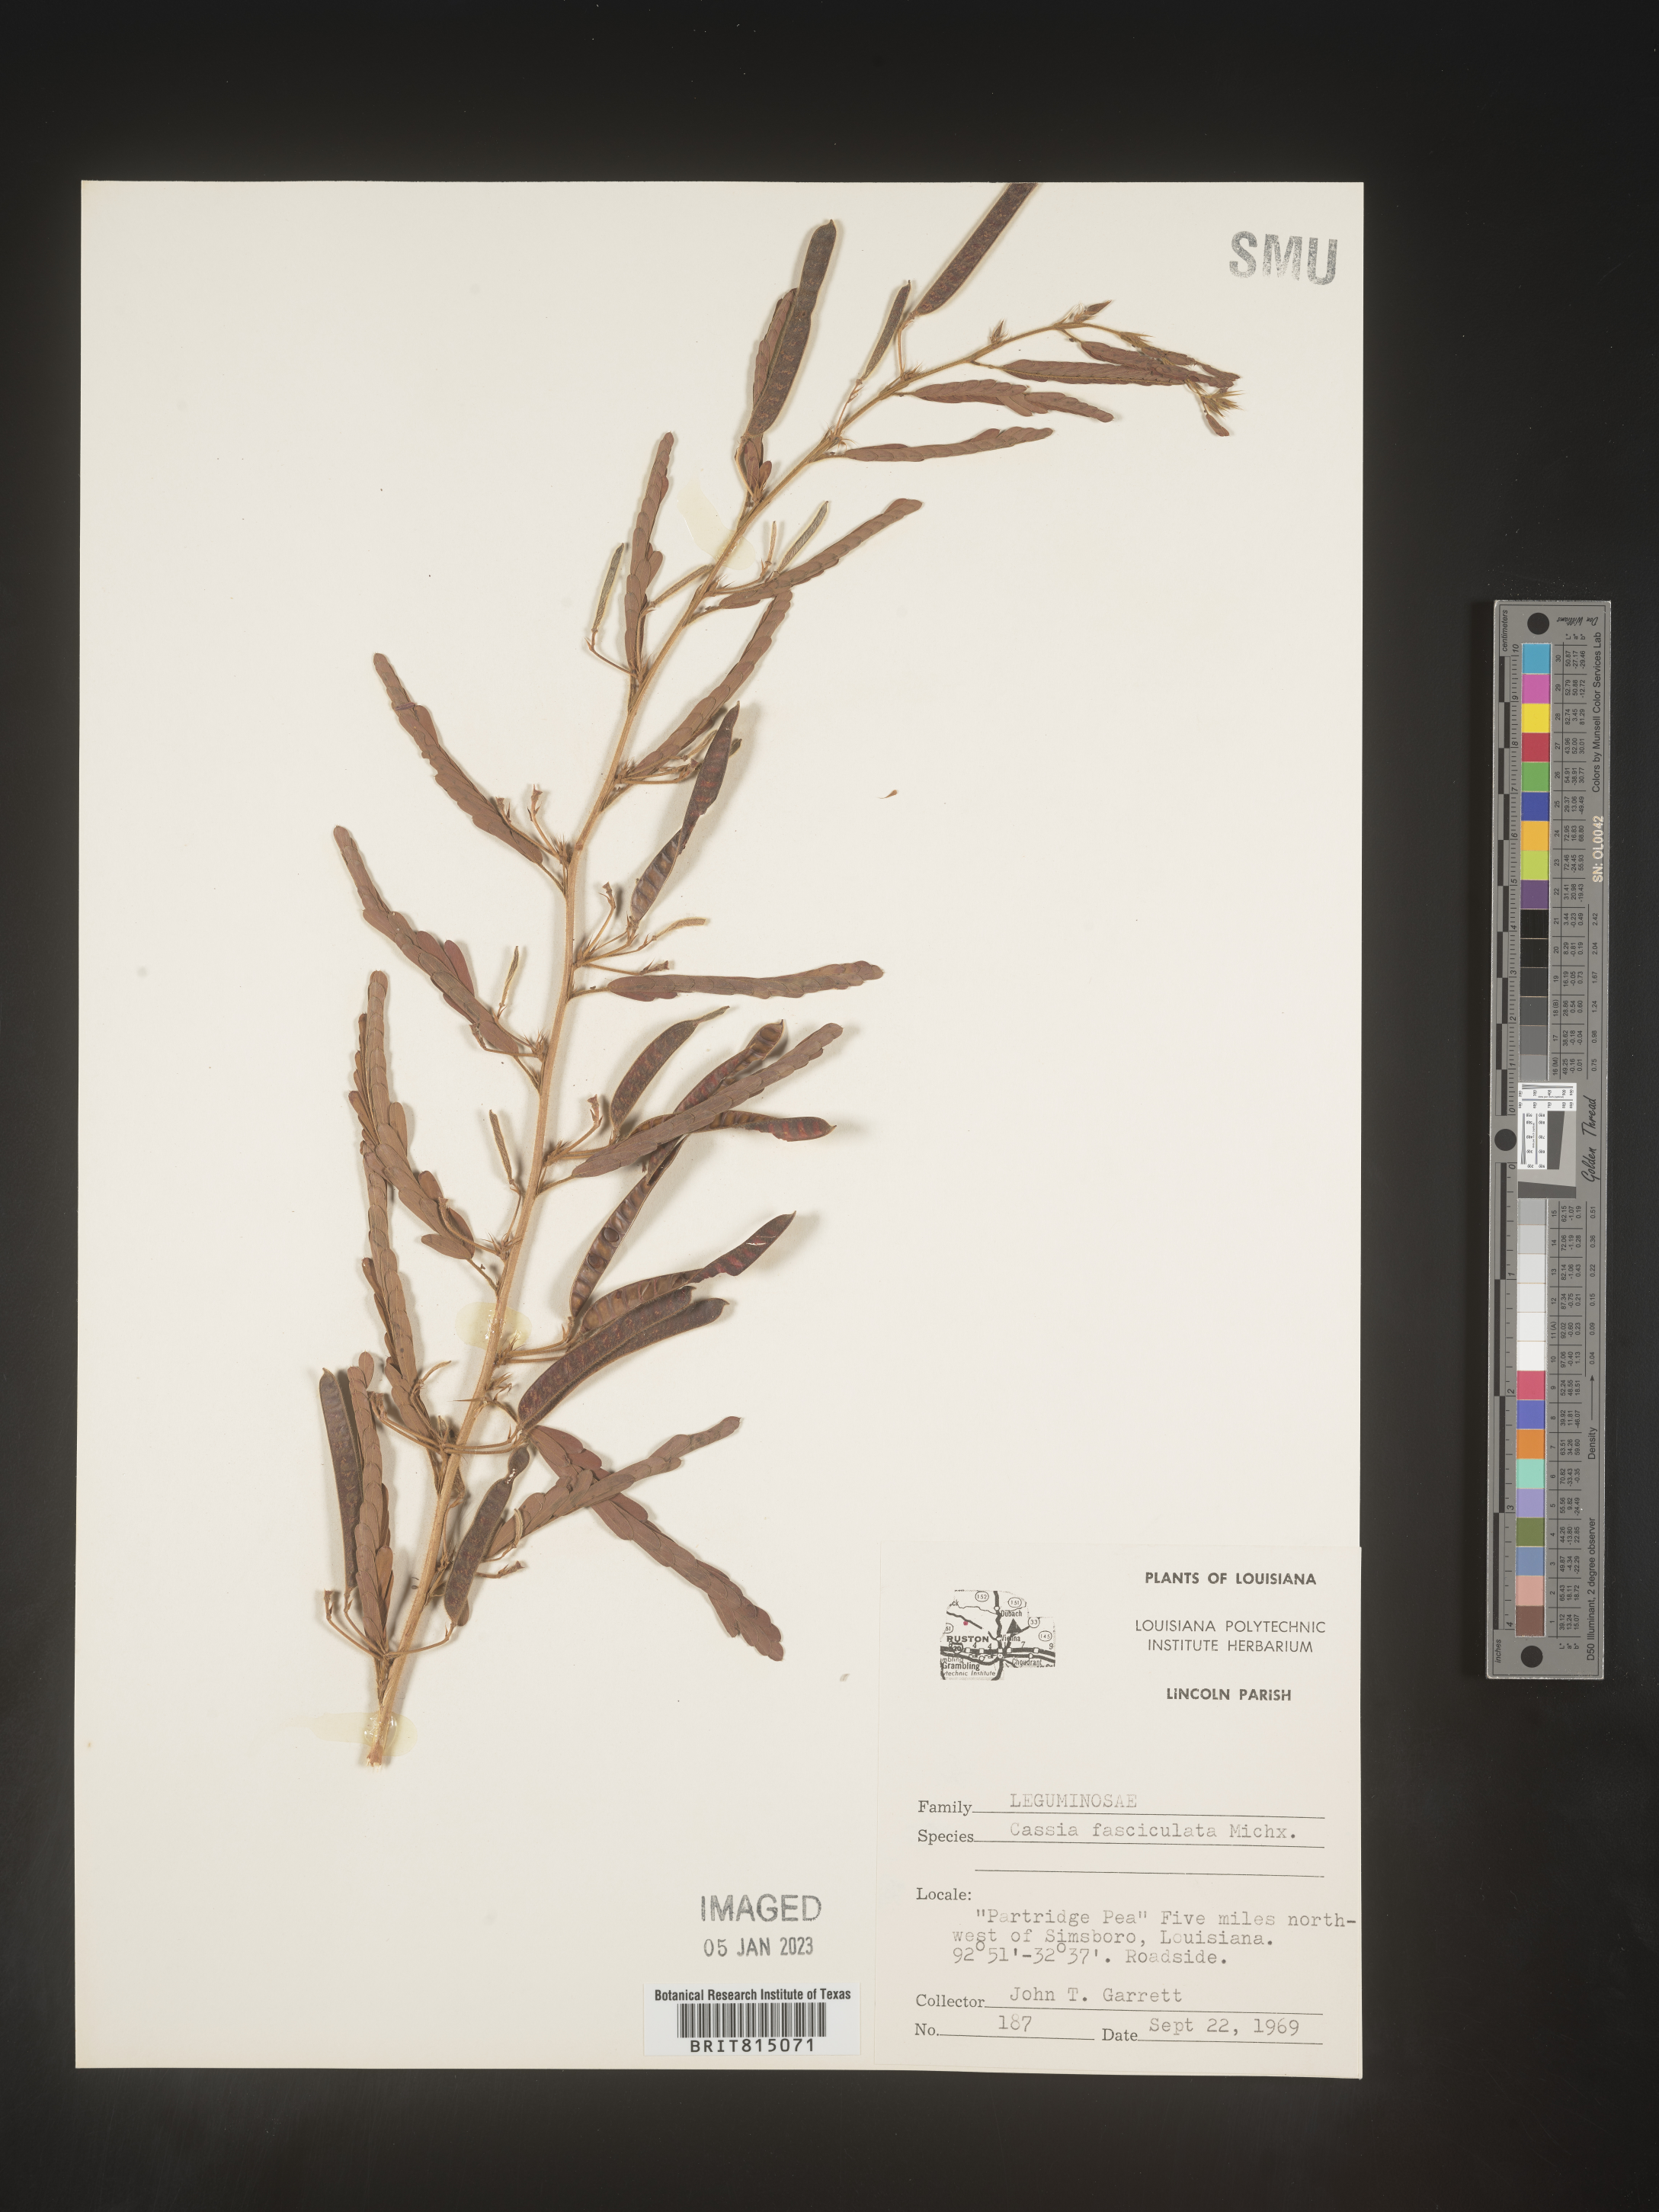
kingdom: Plantae
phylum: Tracheophyta
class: Magnoliopsida
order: Fabales
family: Fabaceae
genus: Chamaecrista
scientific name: Chamaecrista fasciculata
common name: Golden cassia
